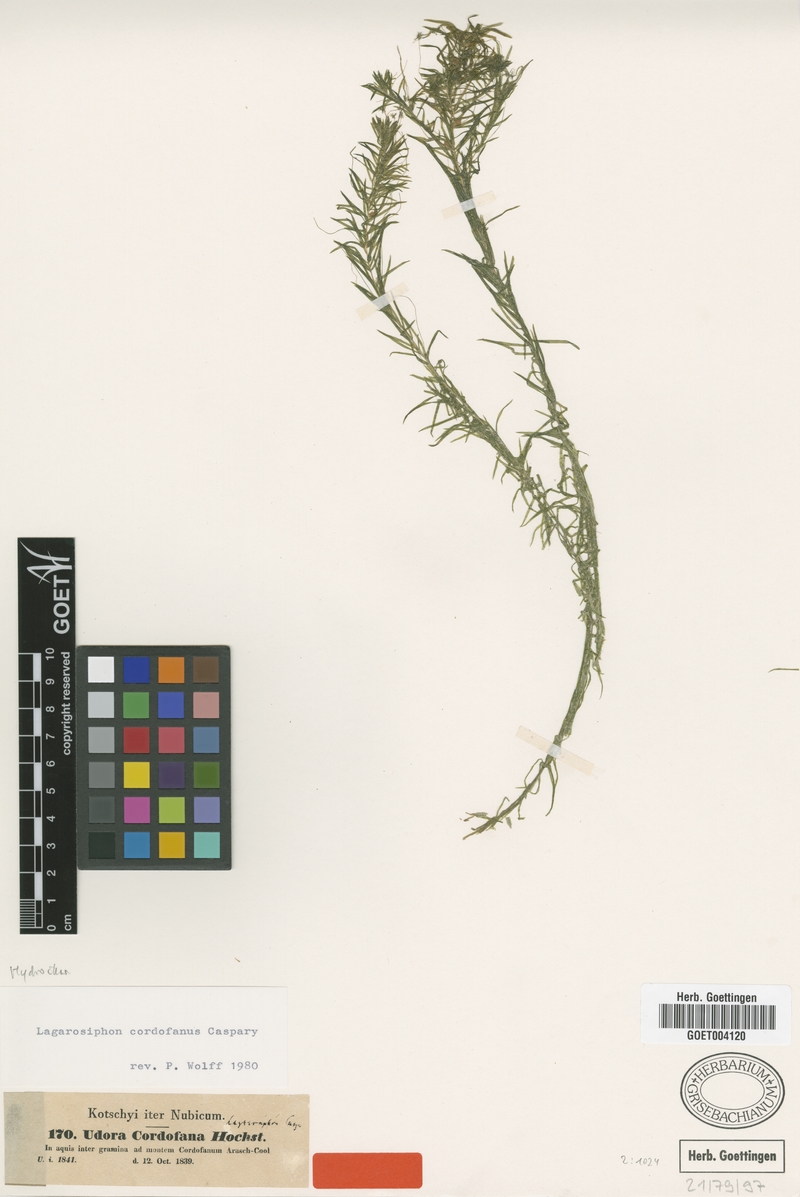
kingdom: Plantae
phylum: Tracheophyta
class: Liliopsida
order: Alismatales
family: Hydrocharitaceae
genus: Lagarosiphon
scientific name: Lagarosiphon cordofanus
